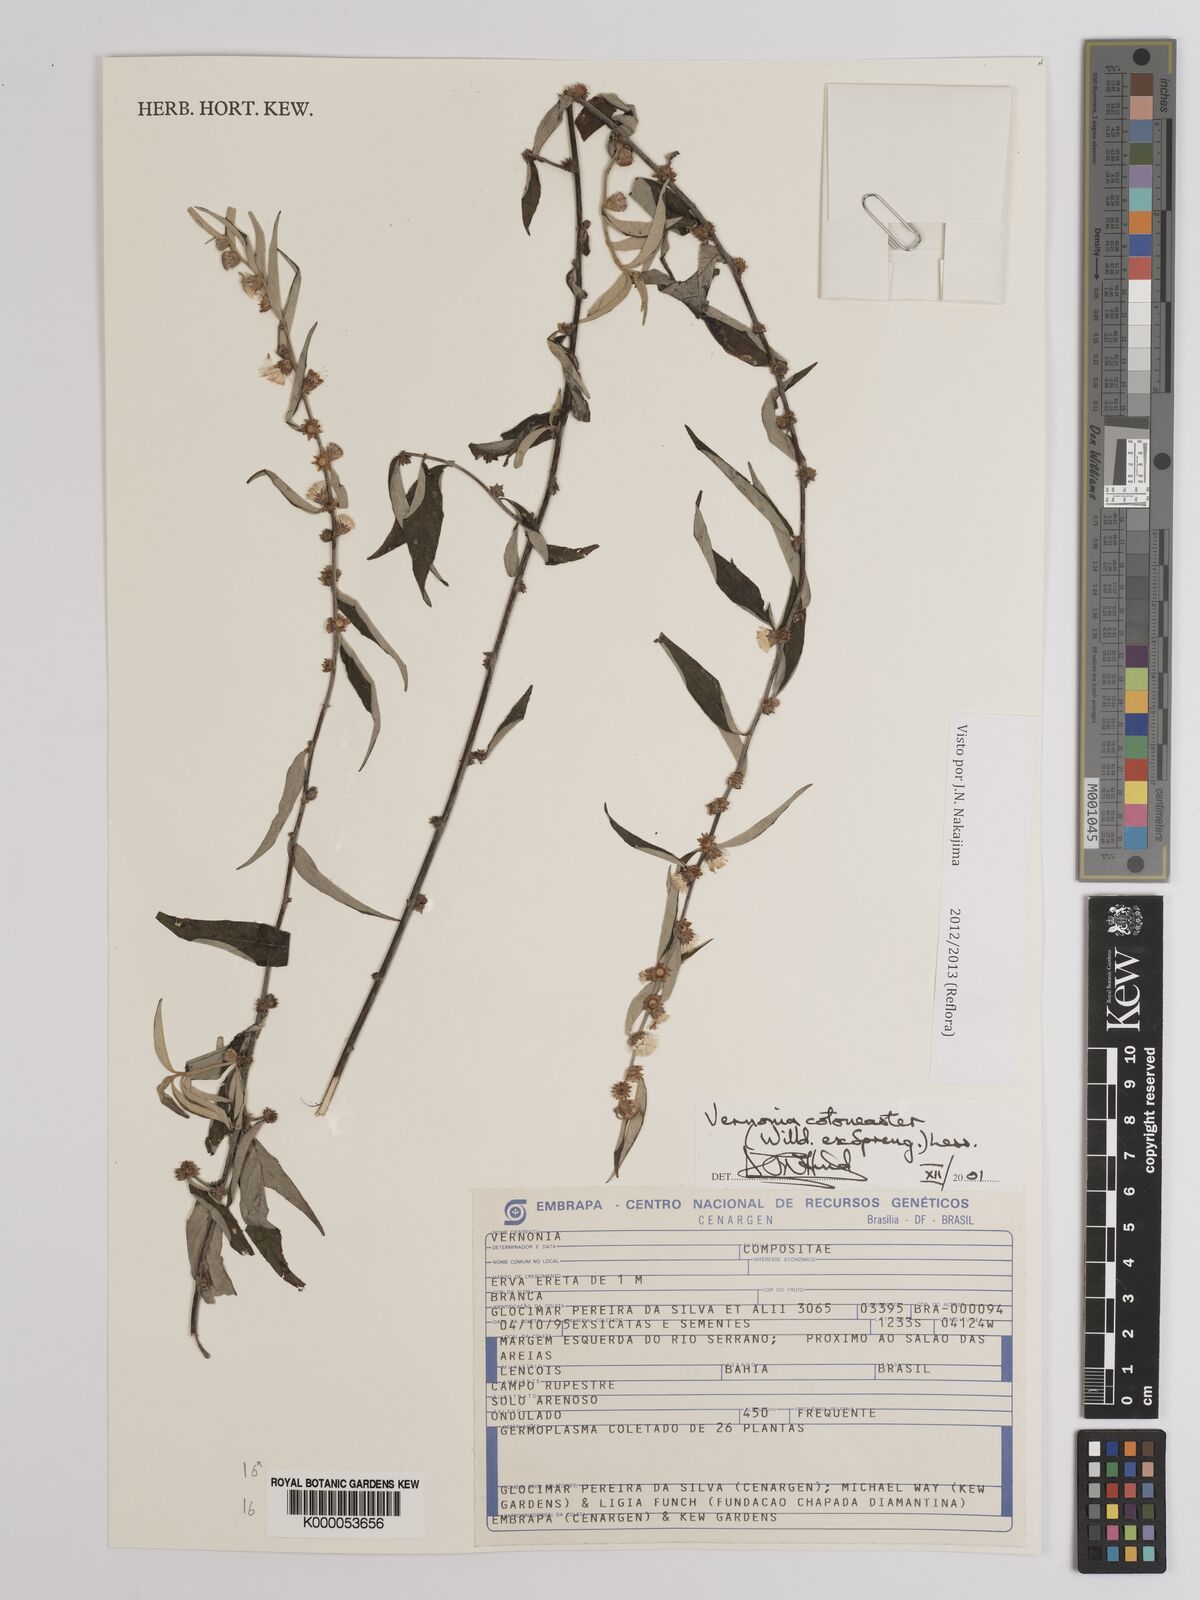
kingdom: Plantae
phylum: Tracheophyta
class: Magnoliopsida
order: Asterales
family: Asteraceae
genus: Lepidaploa
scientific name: Lepidaploa cotoneaster
